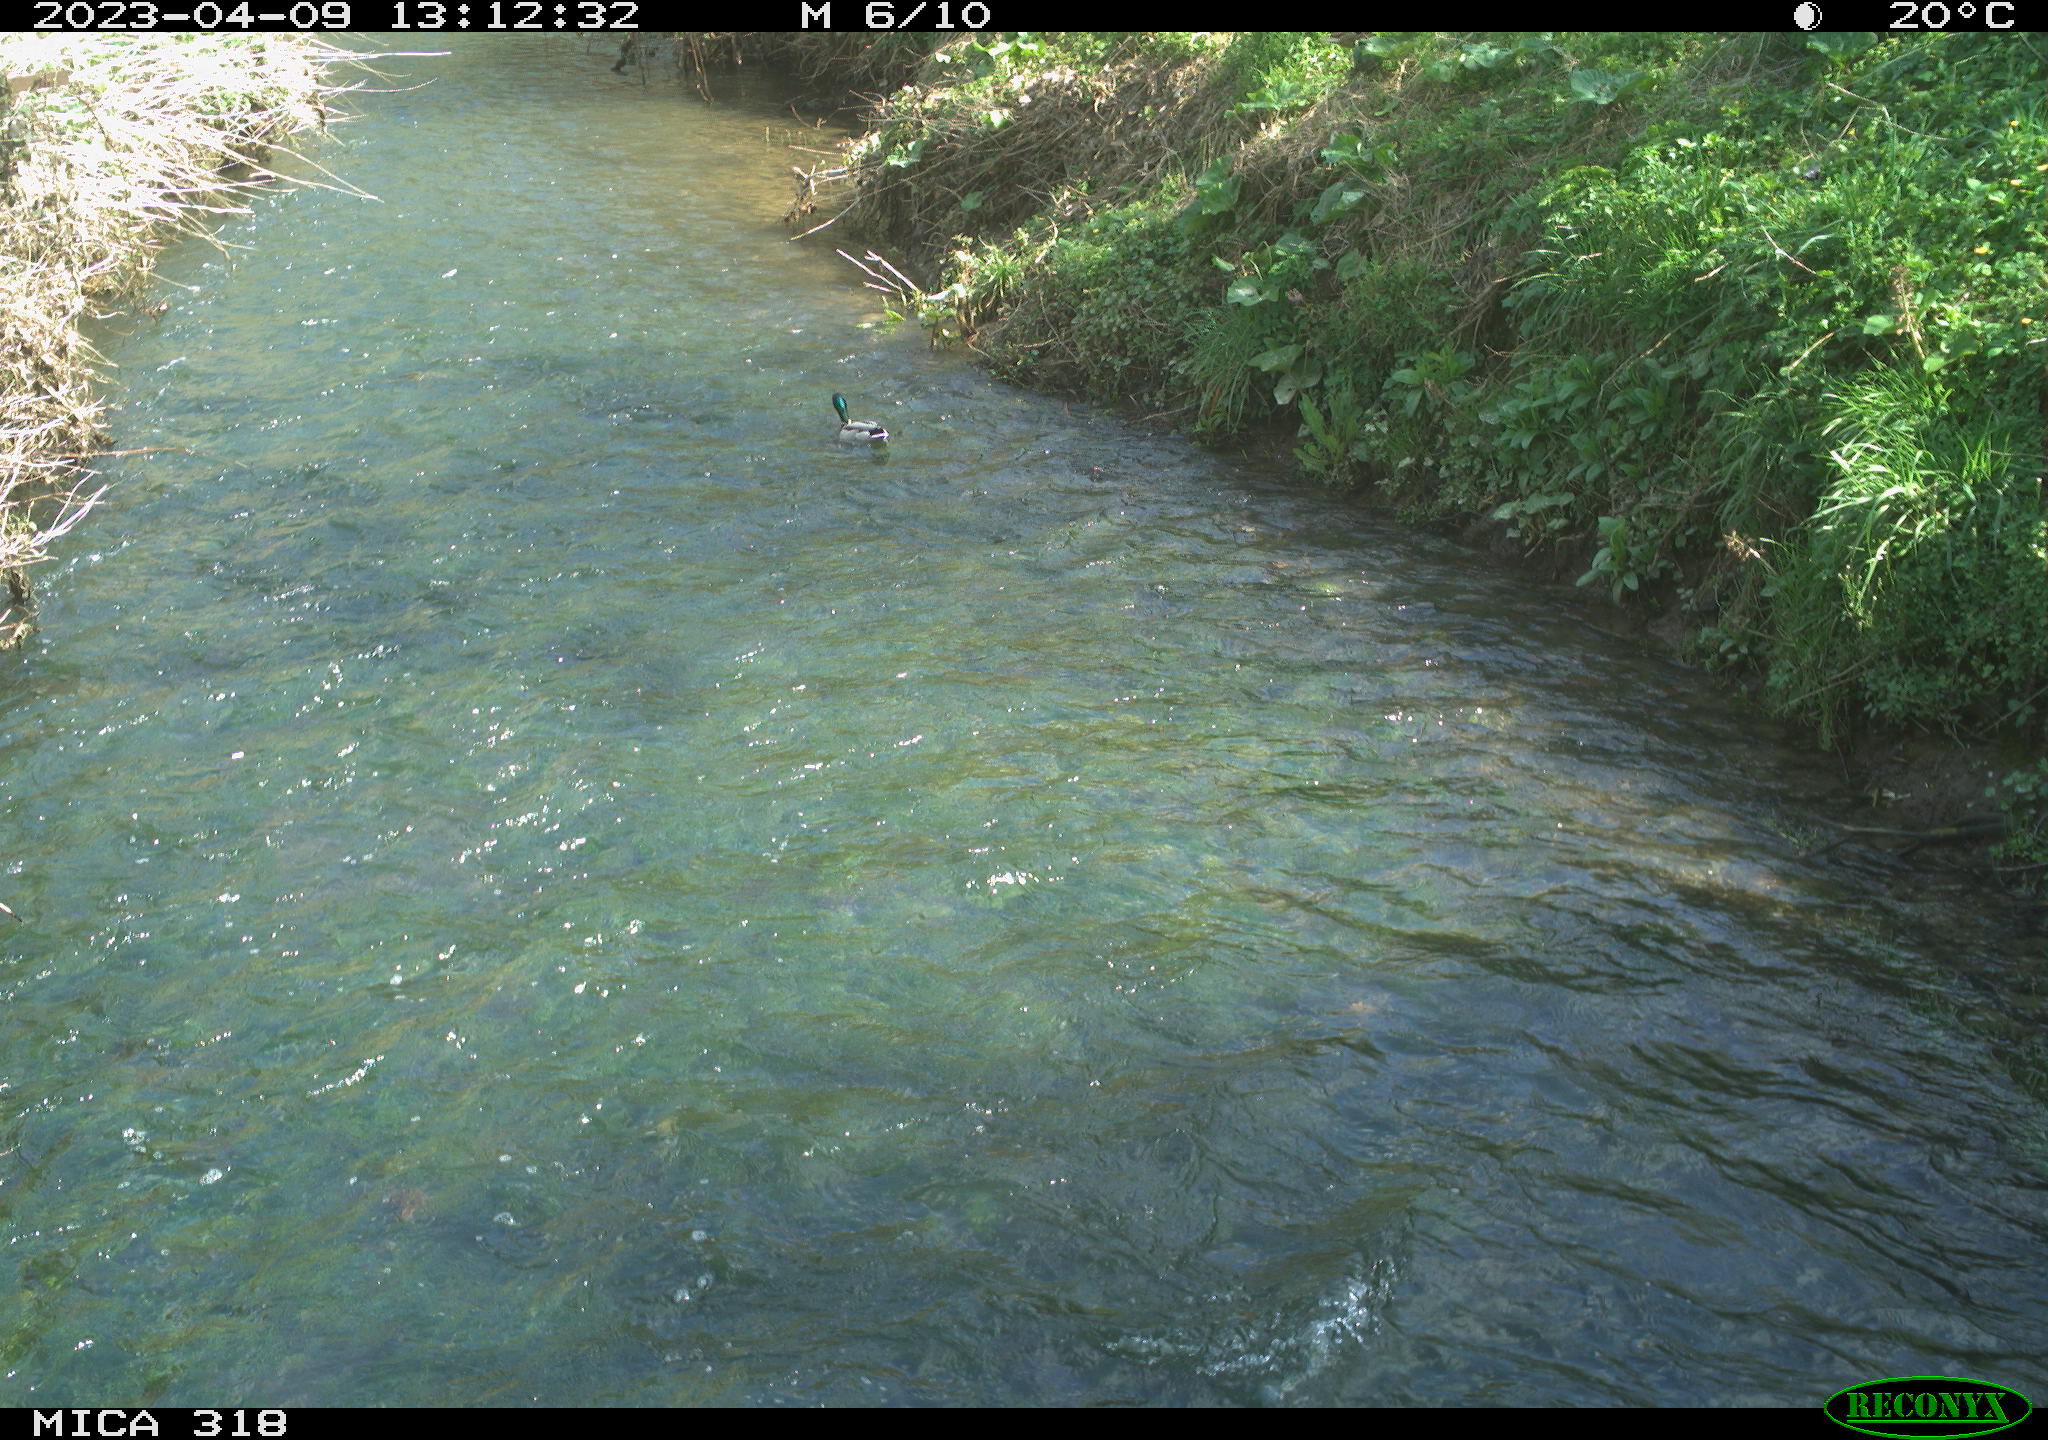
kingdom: Animalia
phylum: Chordata
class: Aves
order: Anseriformes
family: Anatidae
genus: Anas
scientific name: Anas
